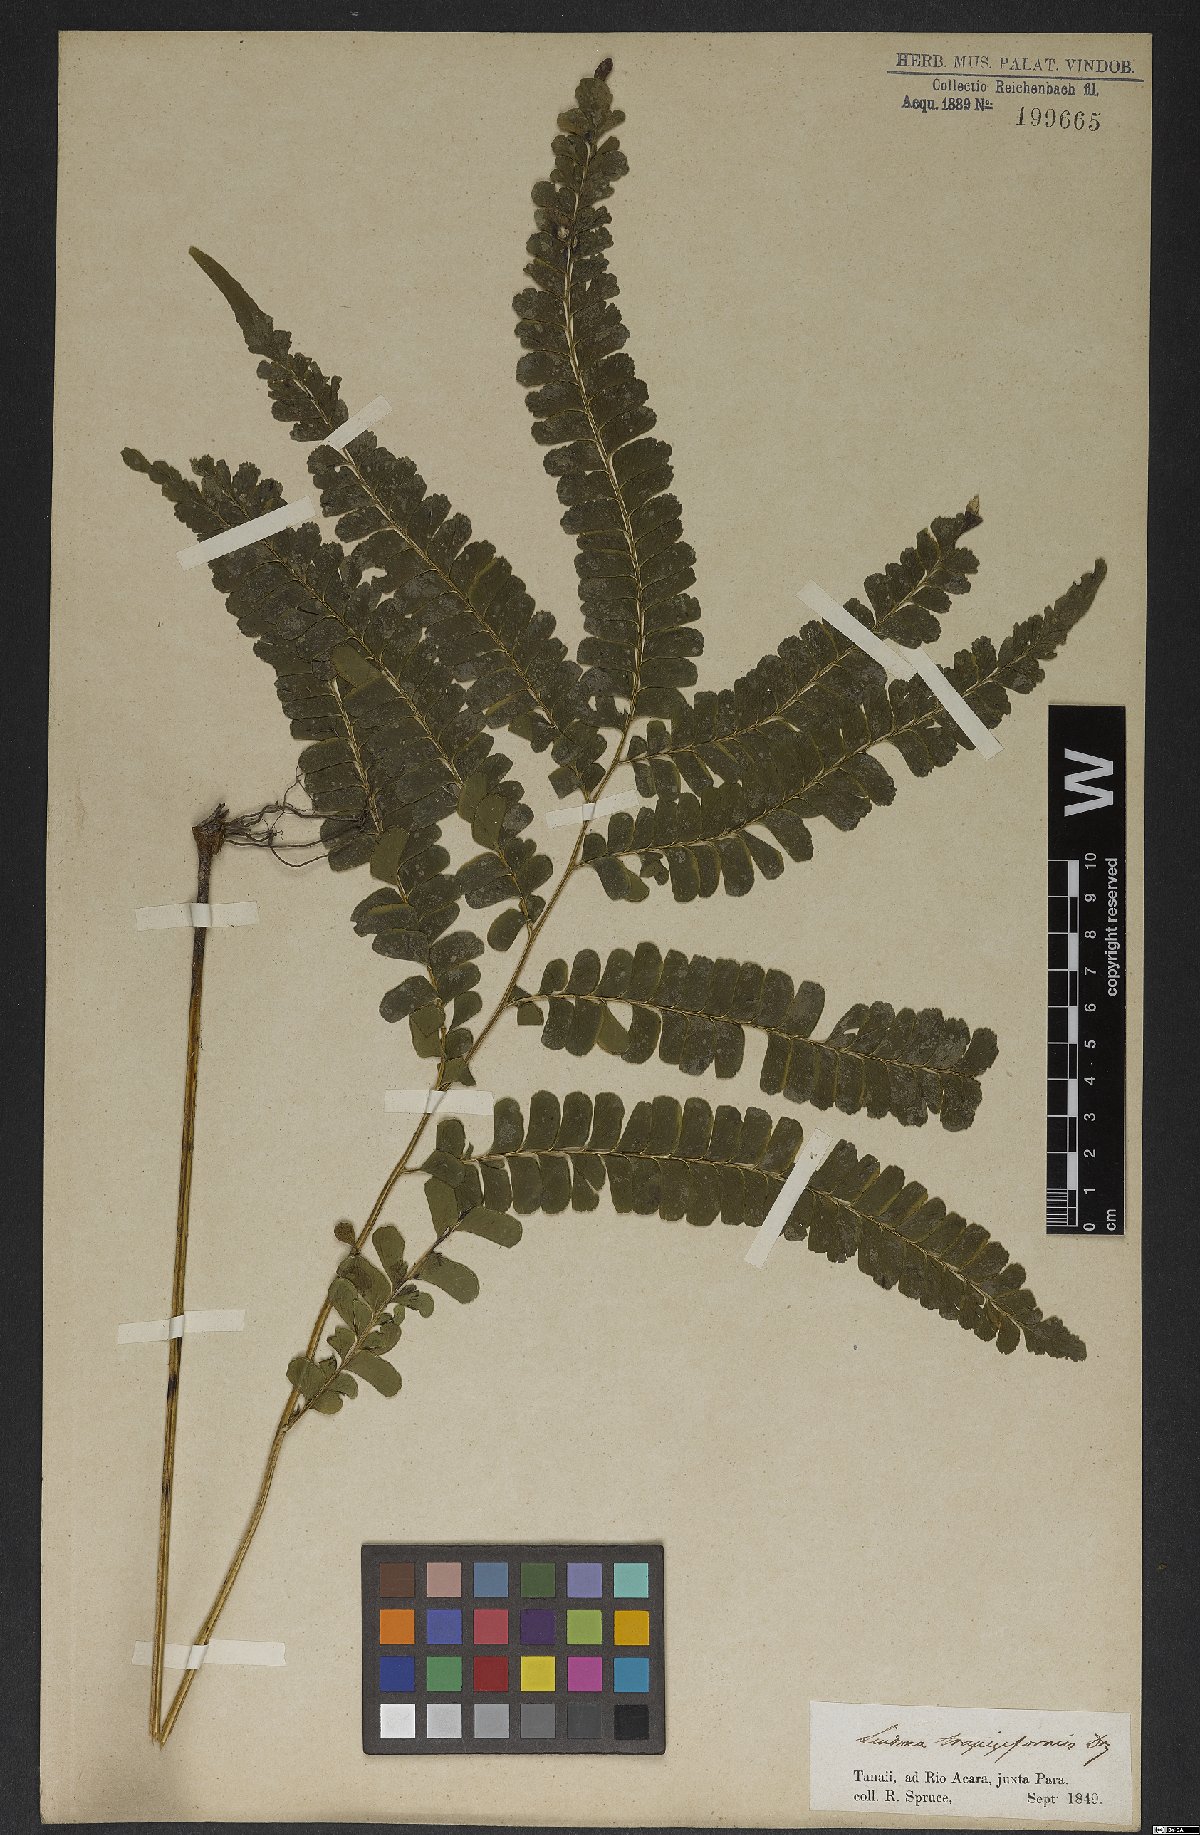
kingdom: Plantae
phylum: Tracheophyta
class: Polypodiopsida
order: Polypodiales
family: Lindsaeaceae
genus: Lindsaea
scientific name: Lindsaea lancea
